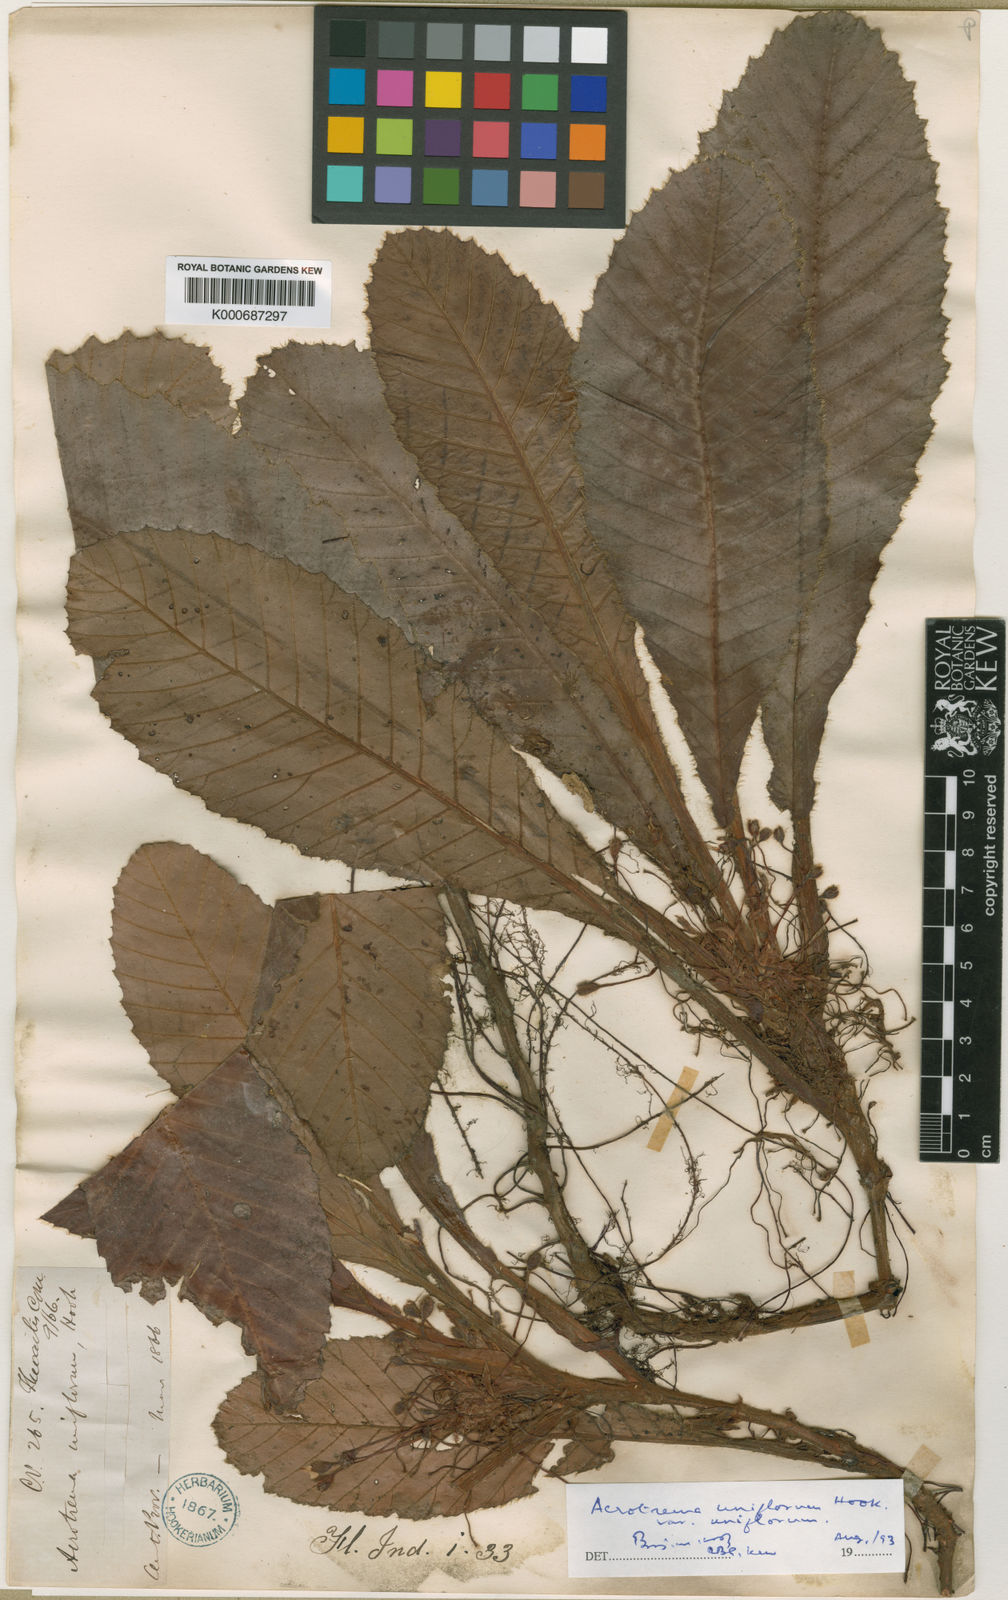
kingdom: Plantae
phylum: Tracheophyta
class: Magnoliopsida
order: Dilleniales
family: Dilleniaceae
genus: Acrotrema
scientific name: Acrotrema uniflorum
